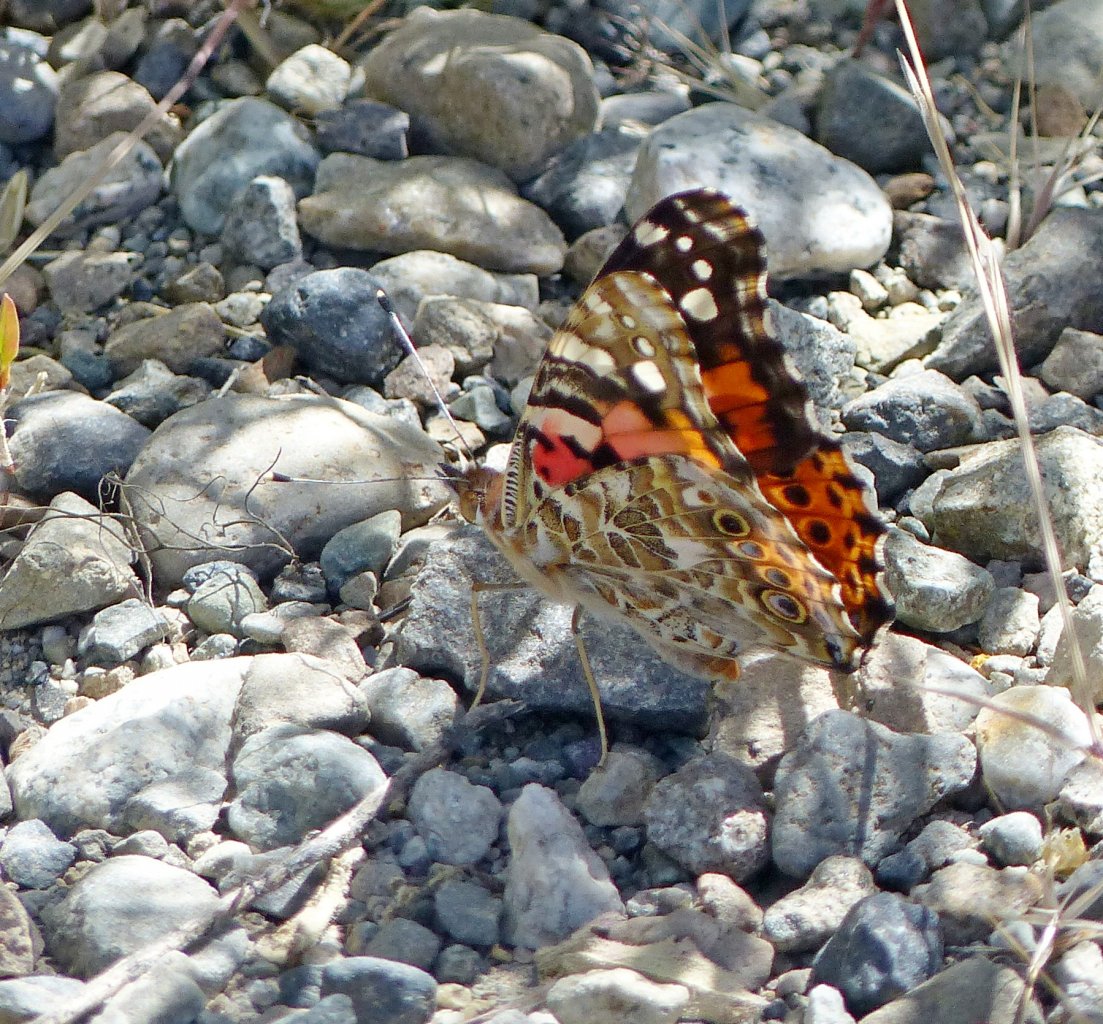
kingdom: Animalia
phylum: Arthropoda
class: Insecta
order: Lepidoptera
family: Nymphalidae
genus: Vanessa
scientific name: Vanessa cardui
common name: Painted Lady
